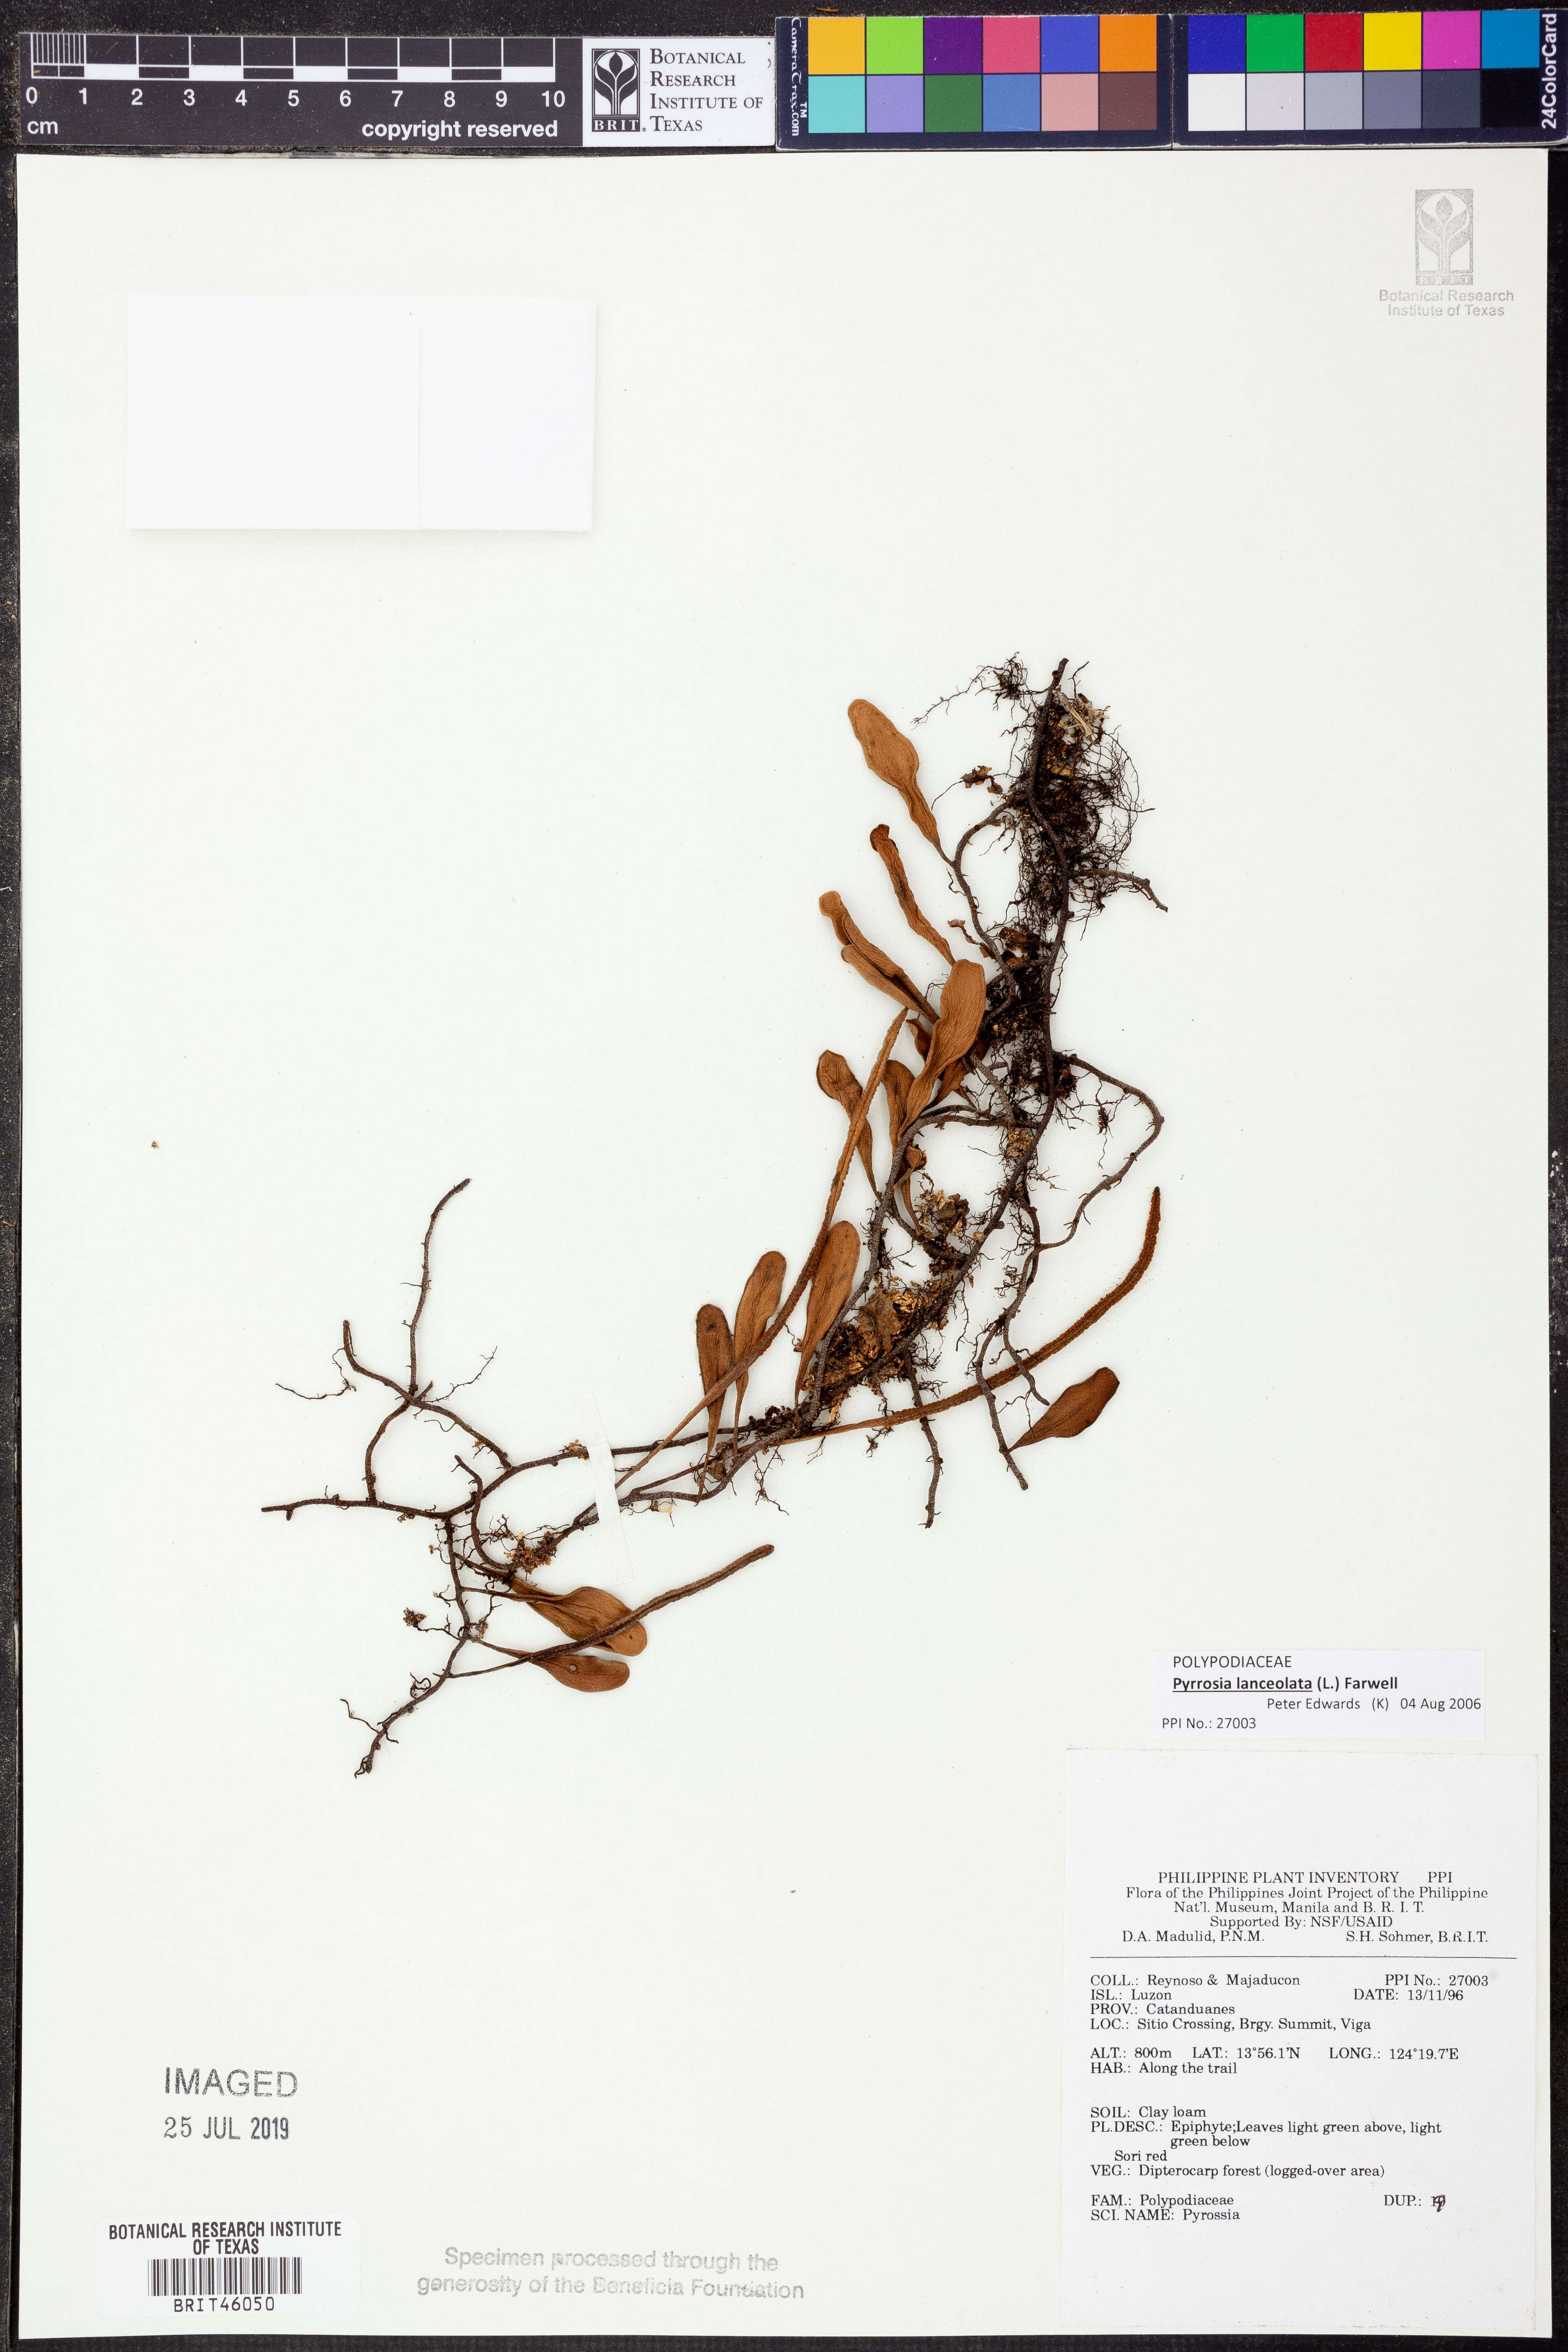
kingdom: Plantae
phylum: Tracheophyta
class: Polypodiopsida
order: Polypodiales
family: Polypodiaceae
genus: Pyrrosia
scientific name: Pyrrosia
